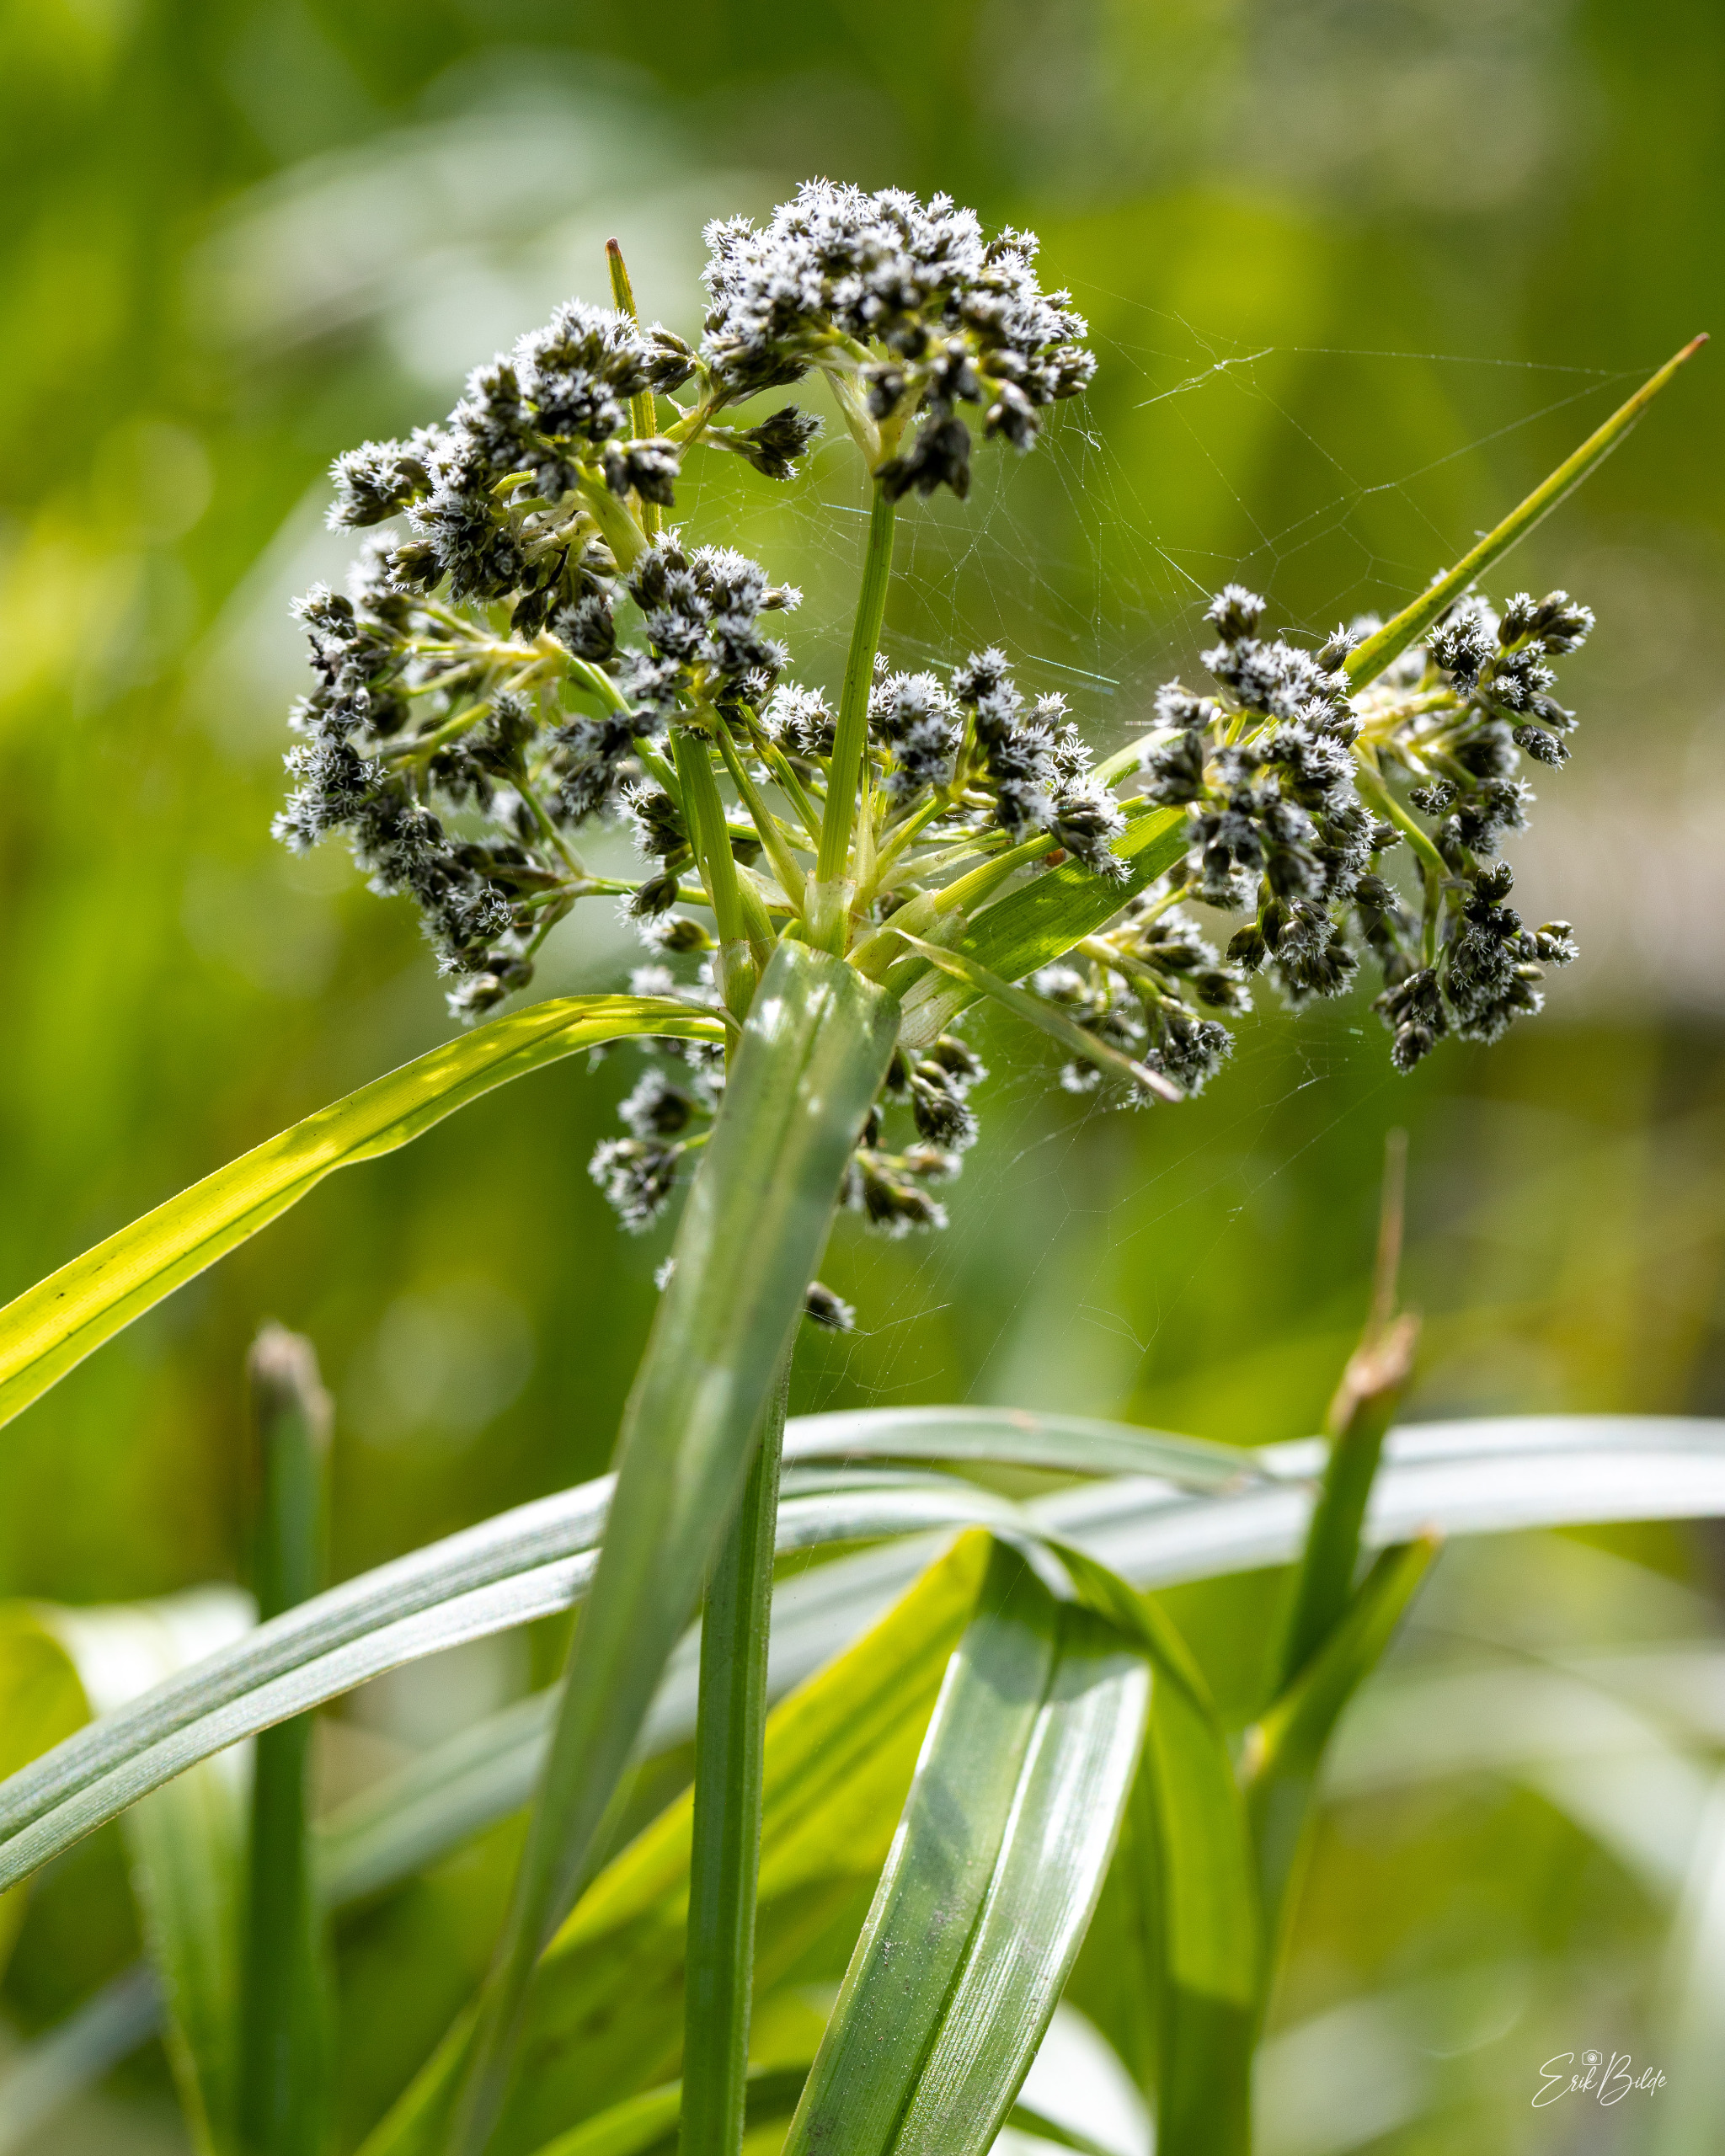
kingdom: Plantae
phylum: Tracheophyta
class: Liliopsida
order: Poales
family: Cyperaceae
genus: Scirpus
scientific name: Scirpus sylvaticus
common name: Skov-kogleaks
